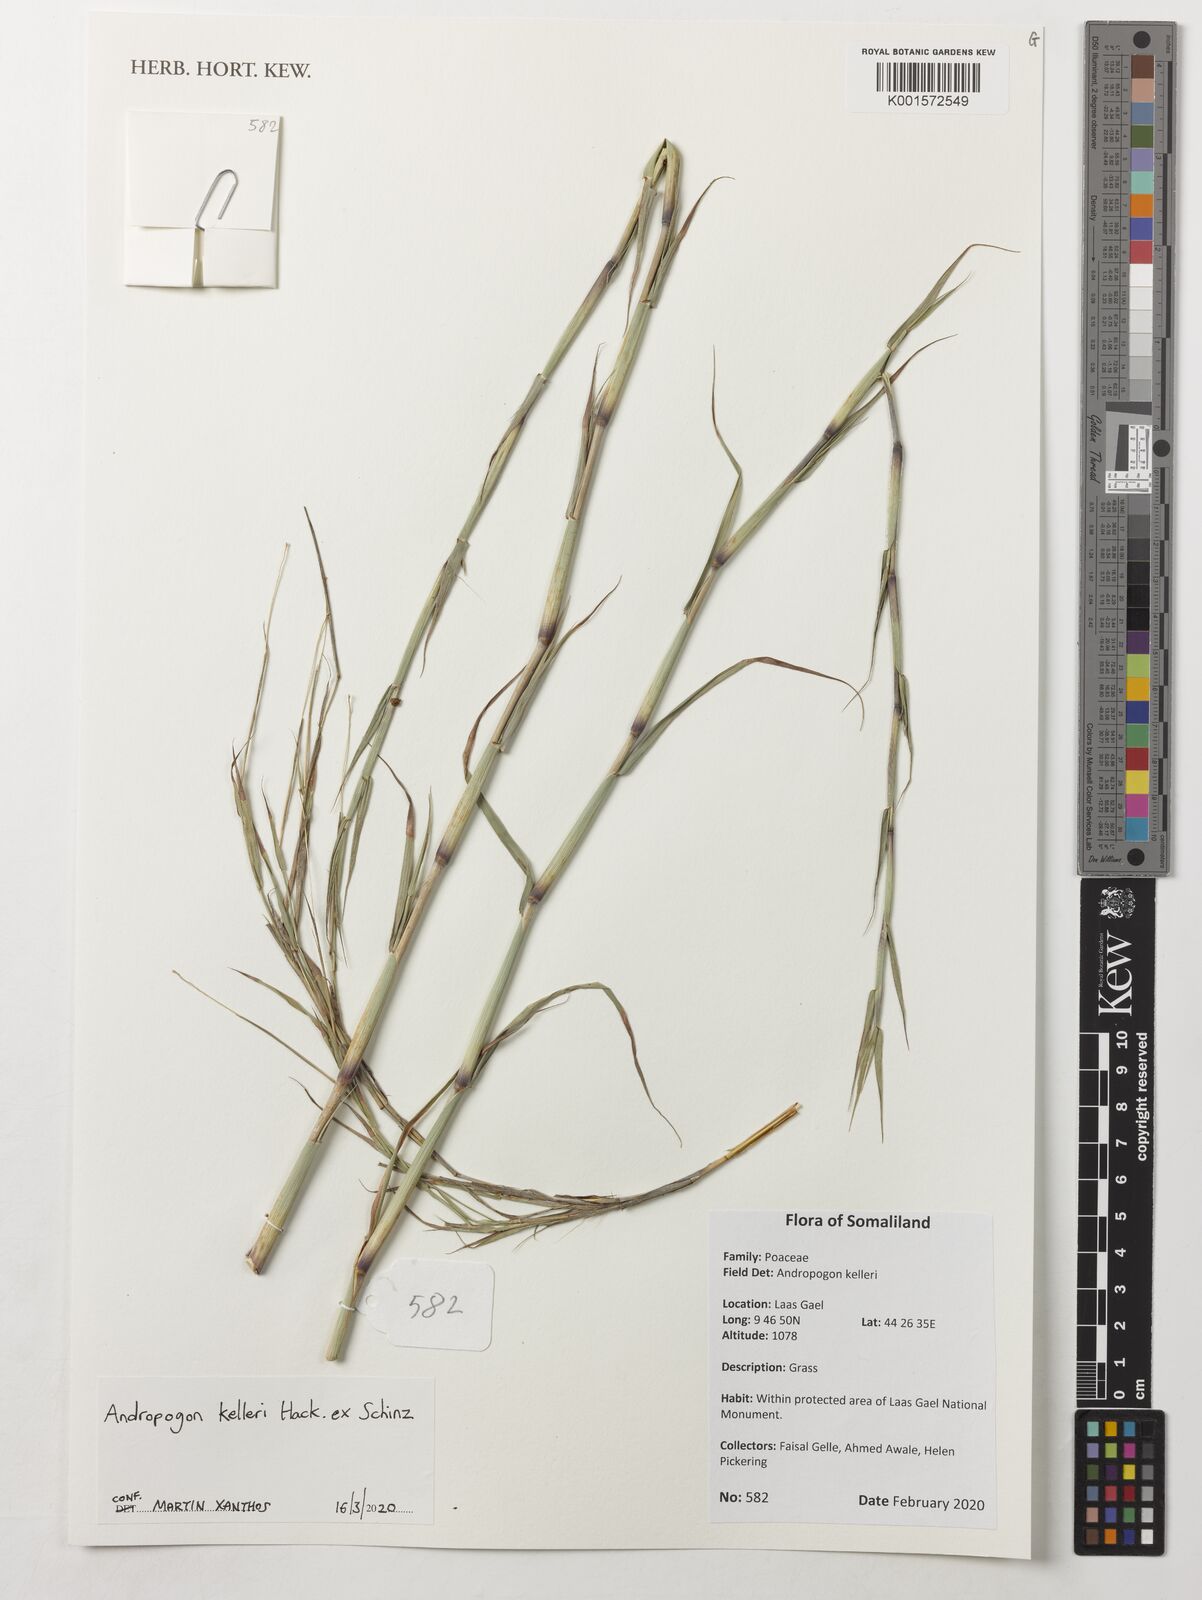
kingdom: Plantae
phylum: Tracheophyta
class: Liliopsida
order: Poales
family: Poaceae
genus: Andropogon
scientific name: Andropogon kelleri
